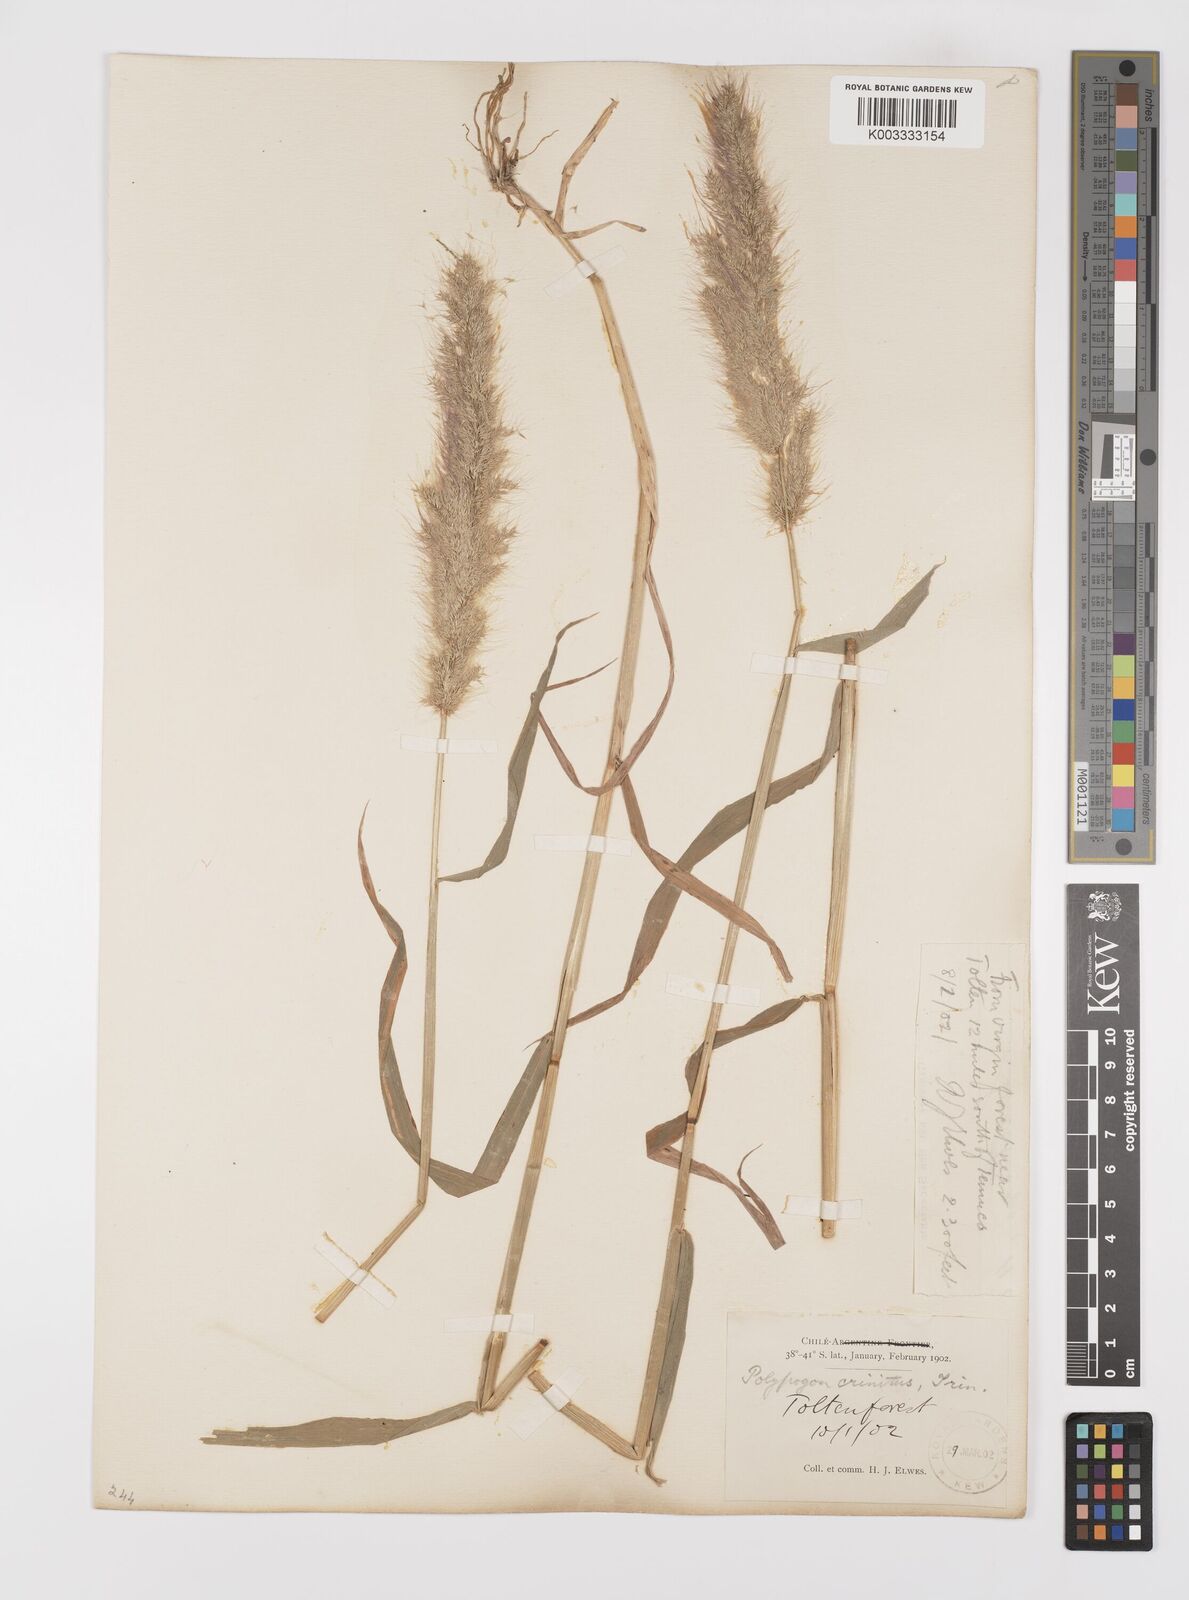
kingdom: Plantae
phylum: Tracheophyta
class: Liliopsida
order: Poales
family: Poaceae
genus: Polypogon
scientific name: Polypogon australis
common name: Chilean rabbitsfoot grass
